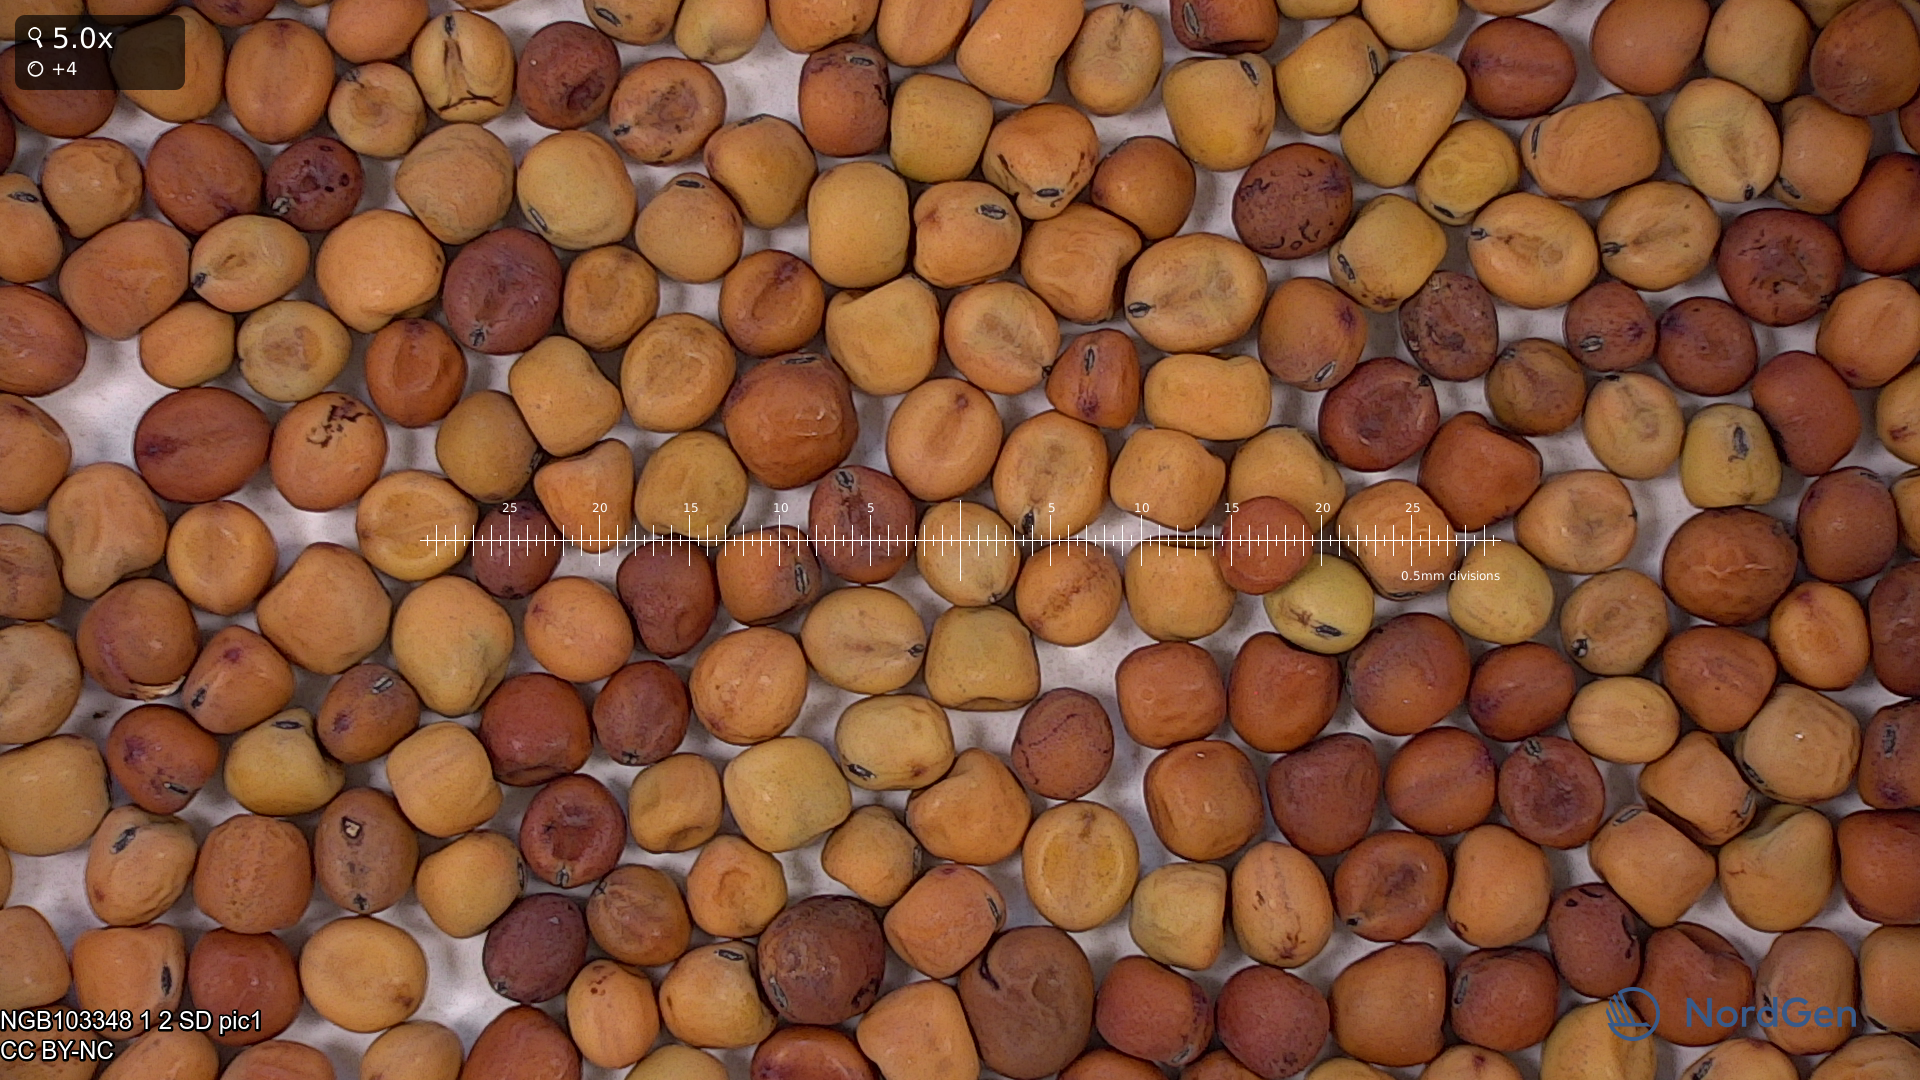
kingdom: Plantae
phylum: Tracheophyta
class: Magnoliopsida
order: Fabales
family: Fabaceae
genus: Lathyrus
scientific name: Lathyrus oleraceus
